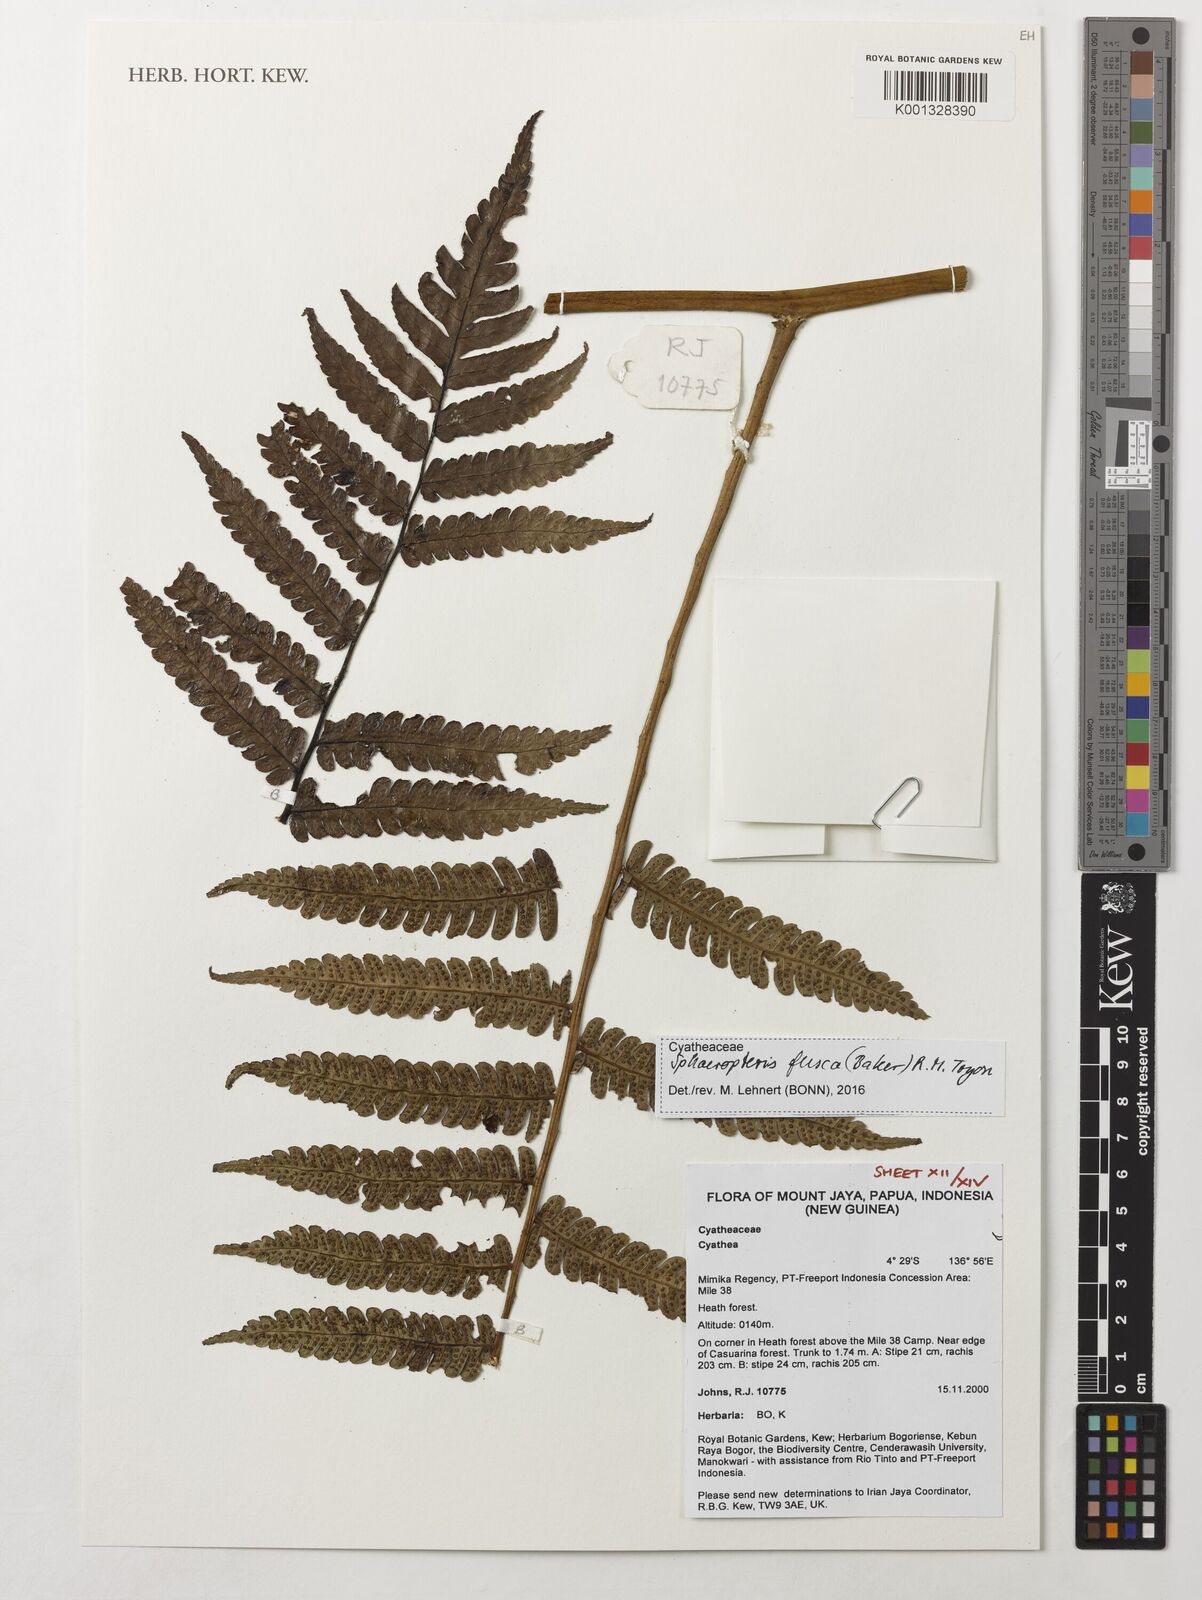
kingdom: Plantae
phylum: Tracheophyta
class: Polypodiopsida
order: Cyatheales
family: Cyatheaceae
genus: Sphaeropteris
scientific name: Sphaeropteris fusca
